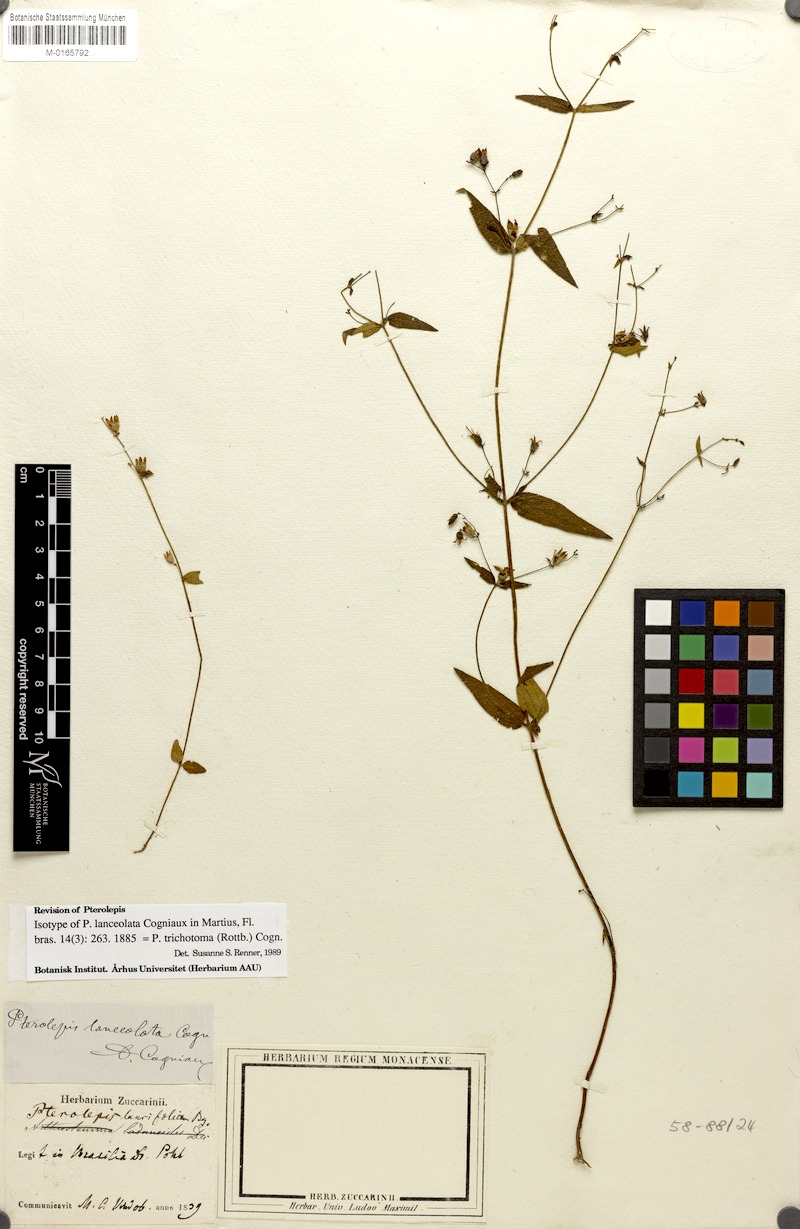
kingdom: Plantae
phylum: Tracheophyta
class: Magnoliopsida
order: Myrtales
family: Melastomataceae
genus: Pterolepis
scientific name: Pterolepis trichotoma
